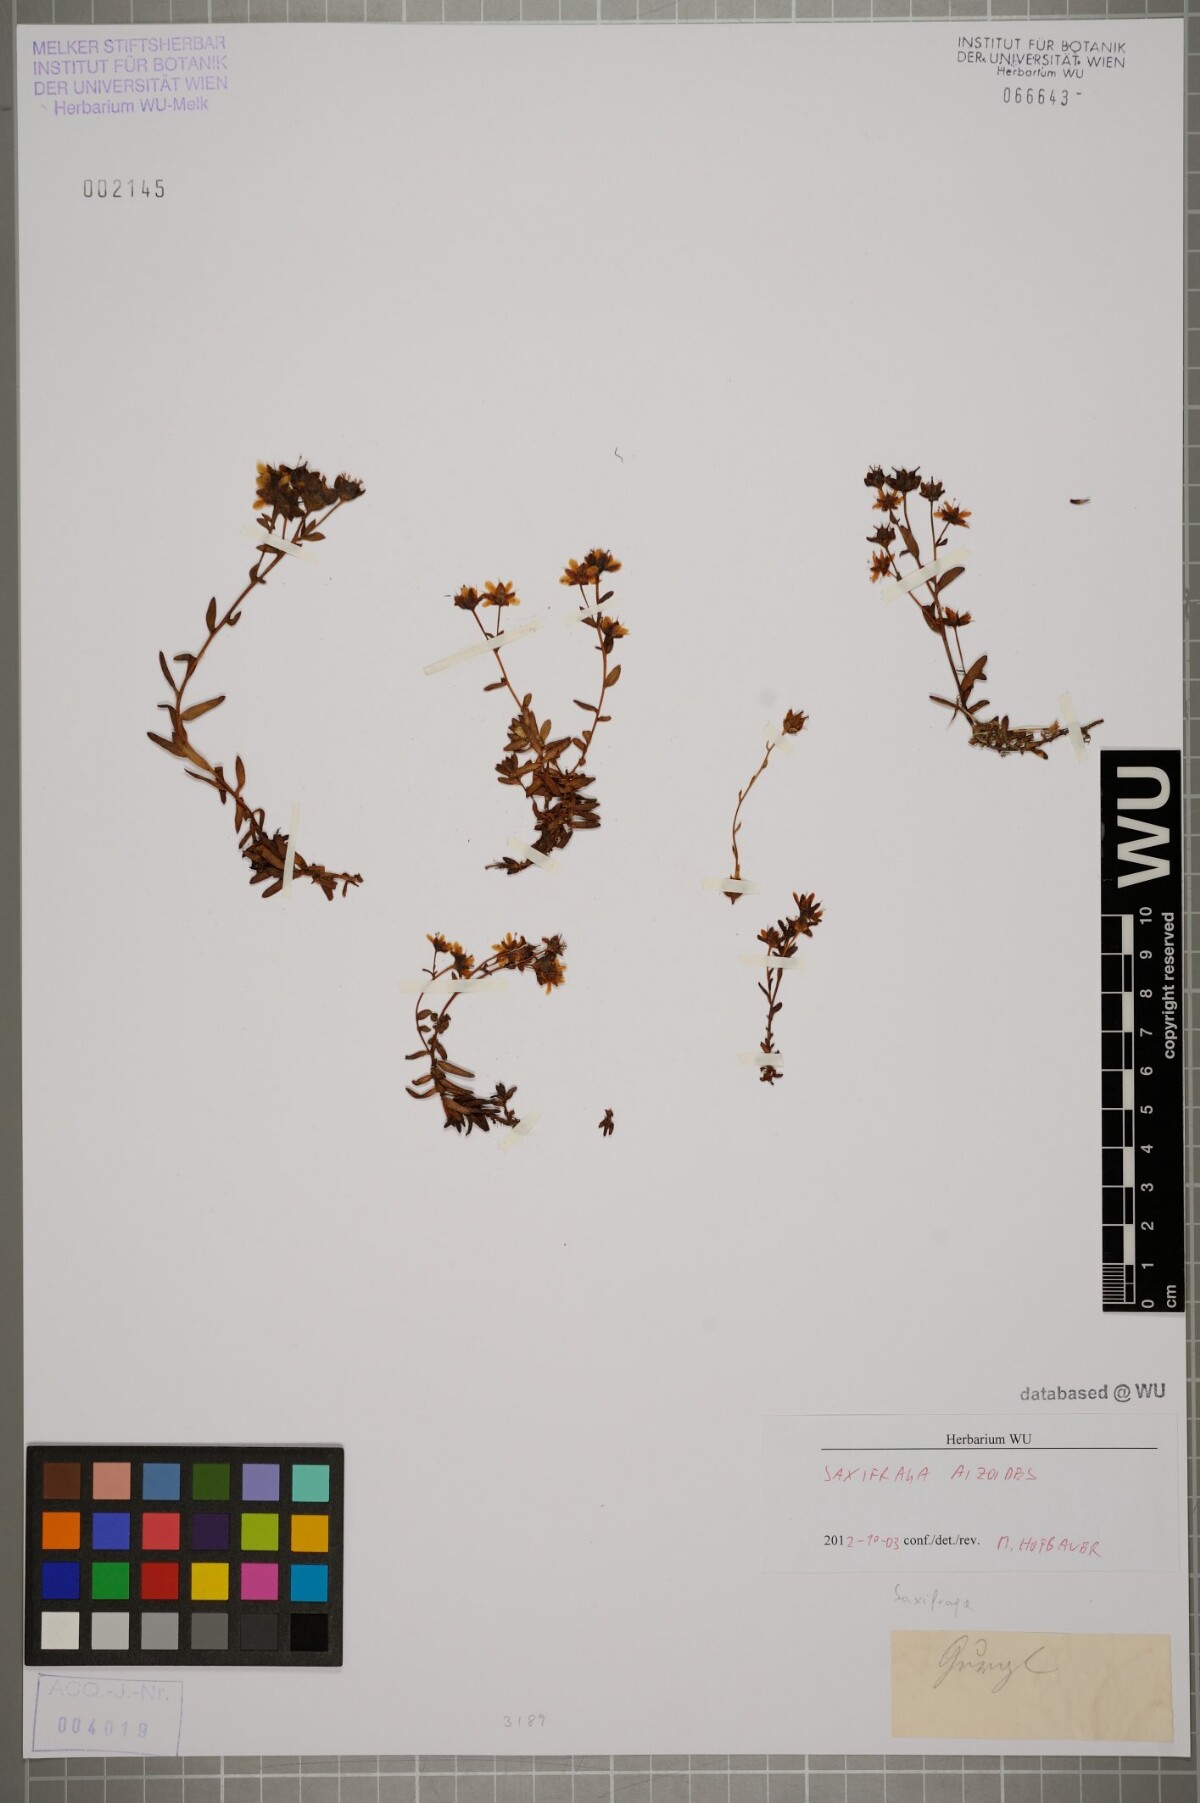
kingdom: Plantae
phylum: Tracheophyta
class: Magnoliopsida
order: Saxifragales
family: Saxifragaceae
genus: Saxifraga
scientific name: Saxifraga aizoides
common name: Yellow mountain saxifrage
